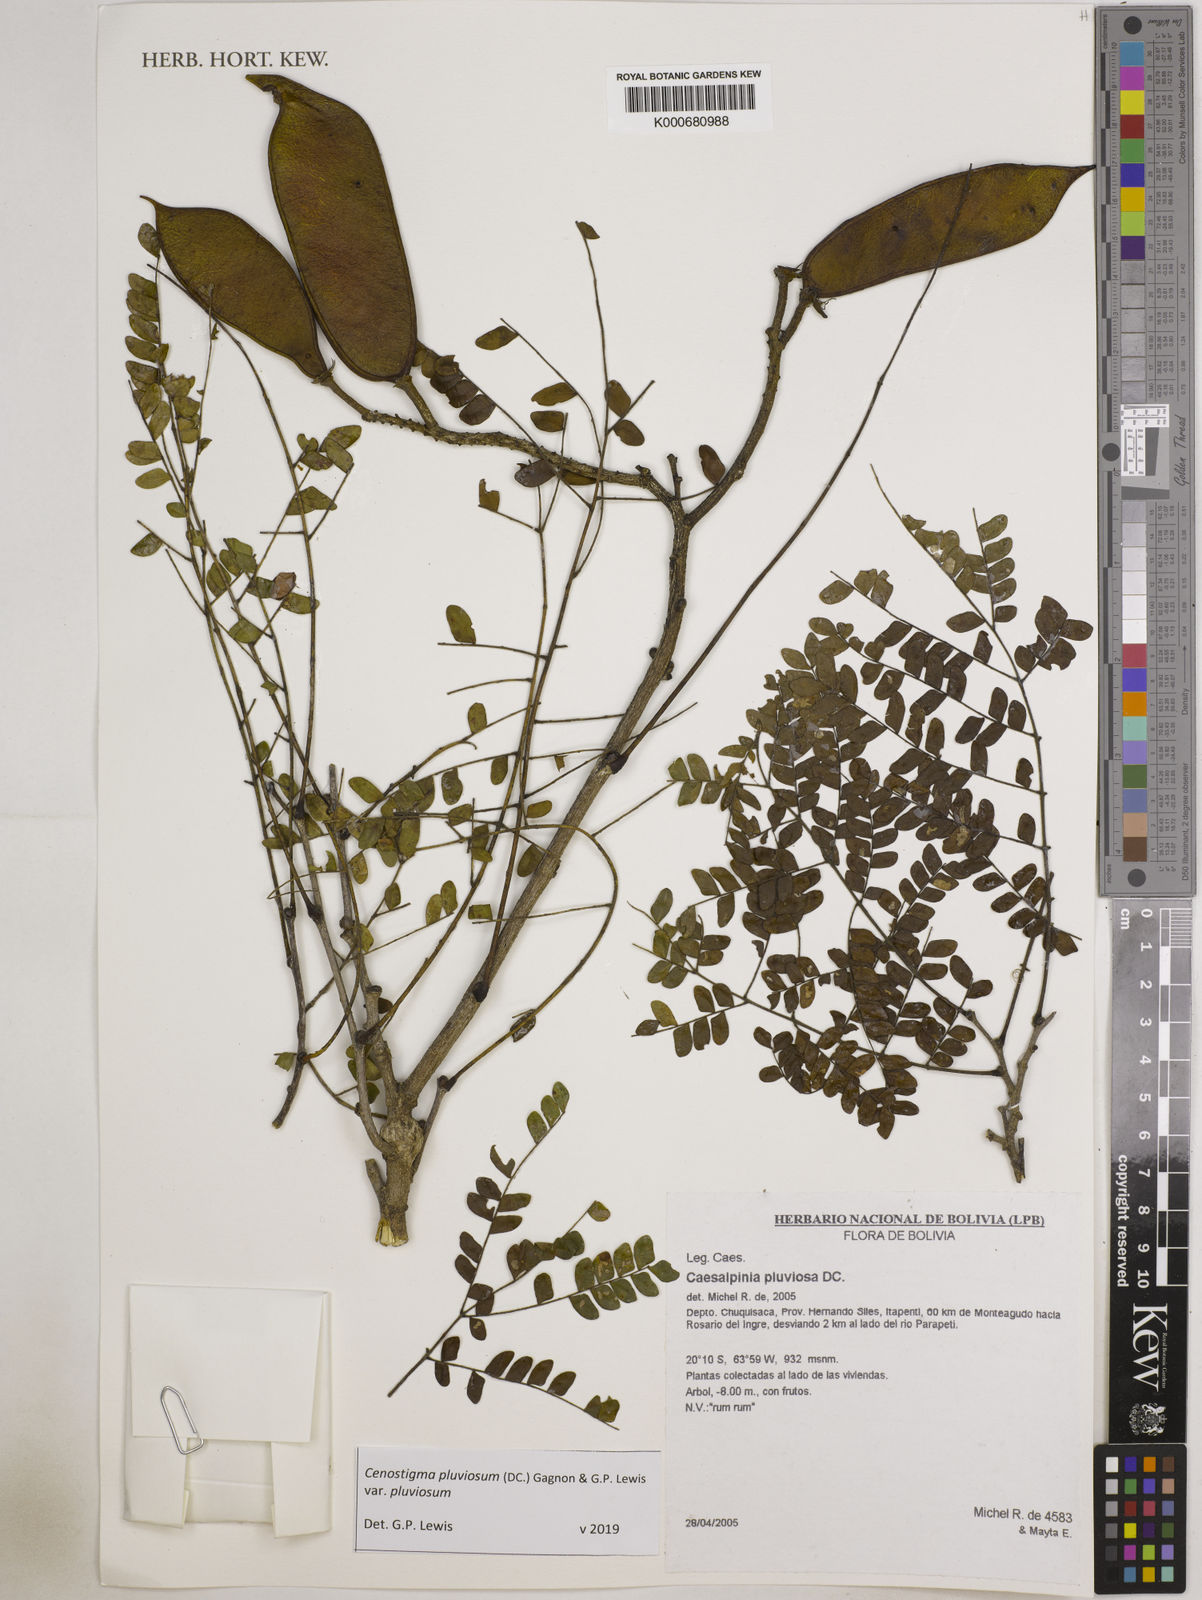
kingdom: Plantae
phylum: Tracheophyta
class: Magnoliopsida
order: Fabales
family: Fabaceae
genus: Cenostigma
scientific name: Cenostigma pluviosum
